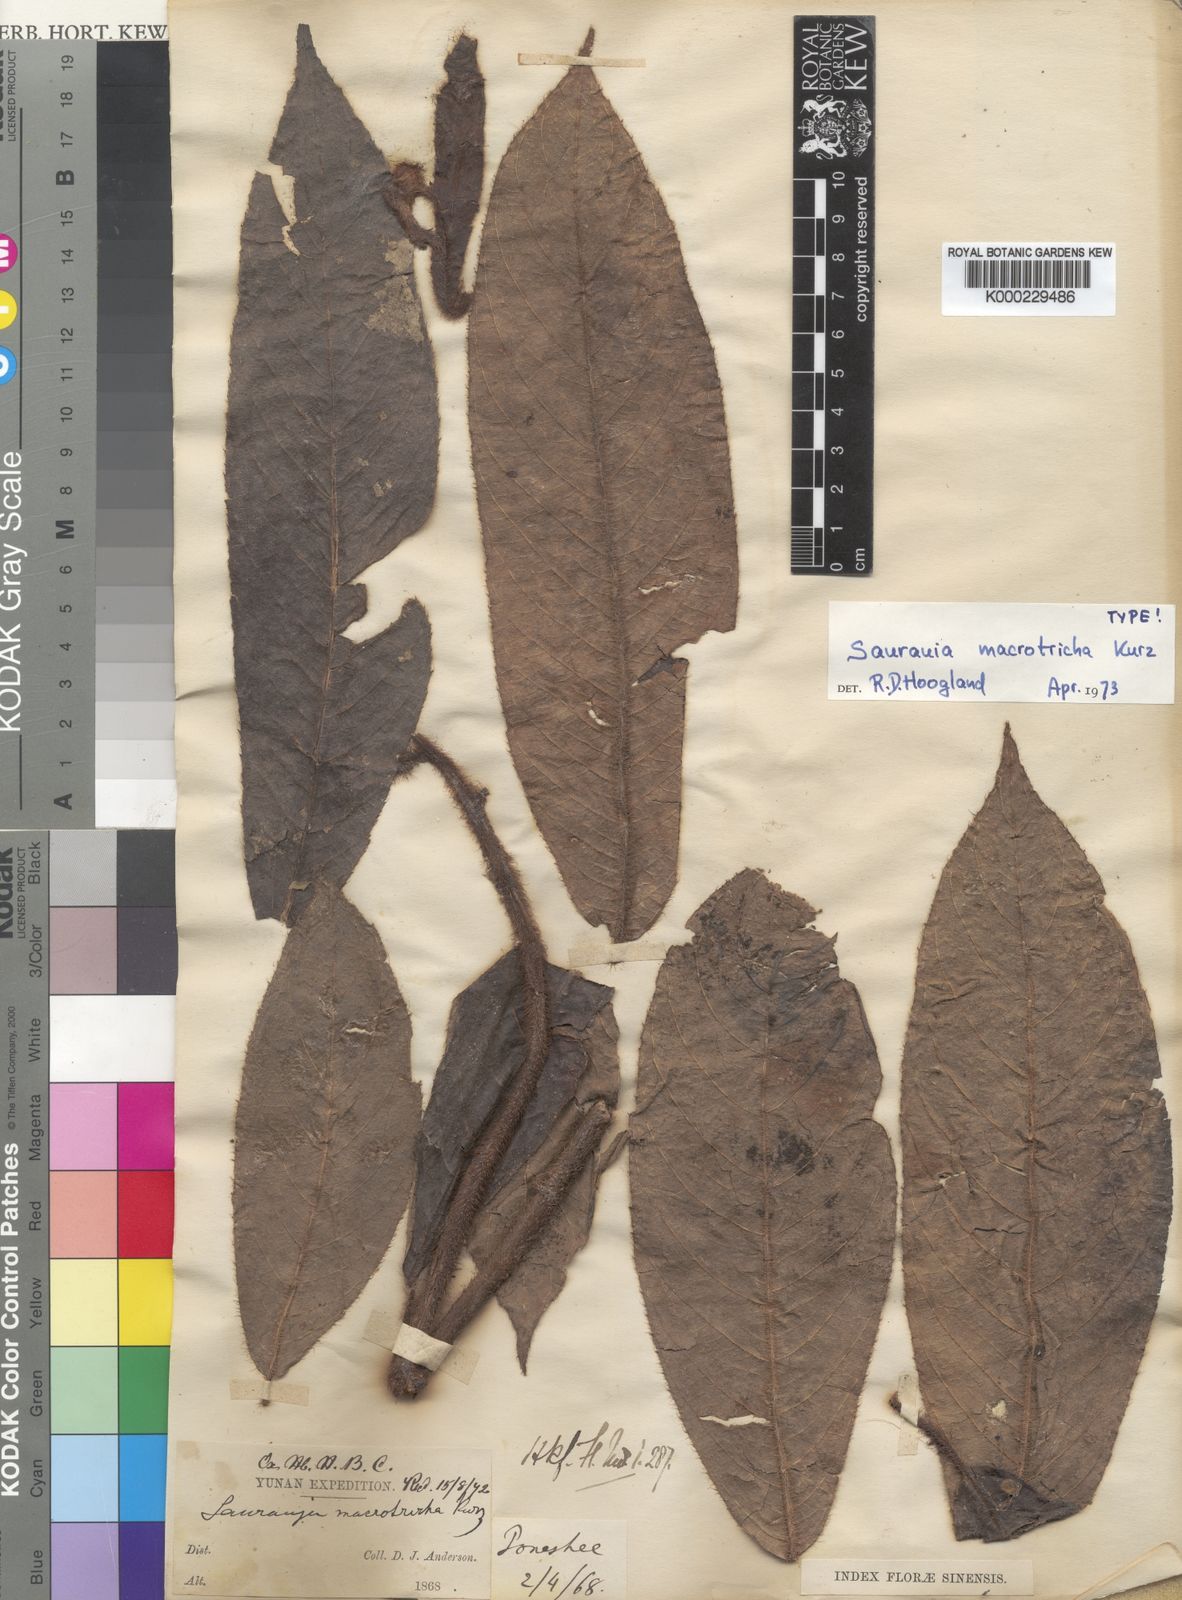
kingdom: Plantae
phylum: Tracheophyta
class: Magnoliopsida
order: Ericales
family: Actinidiaceae
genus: Saurauia
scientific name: Saurauia macrotricha
